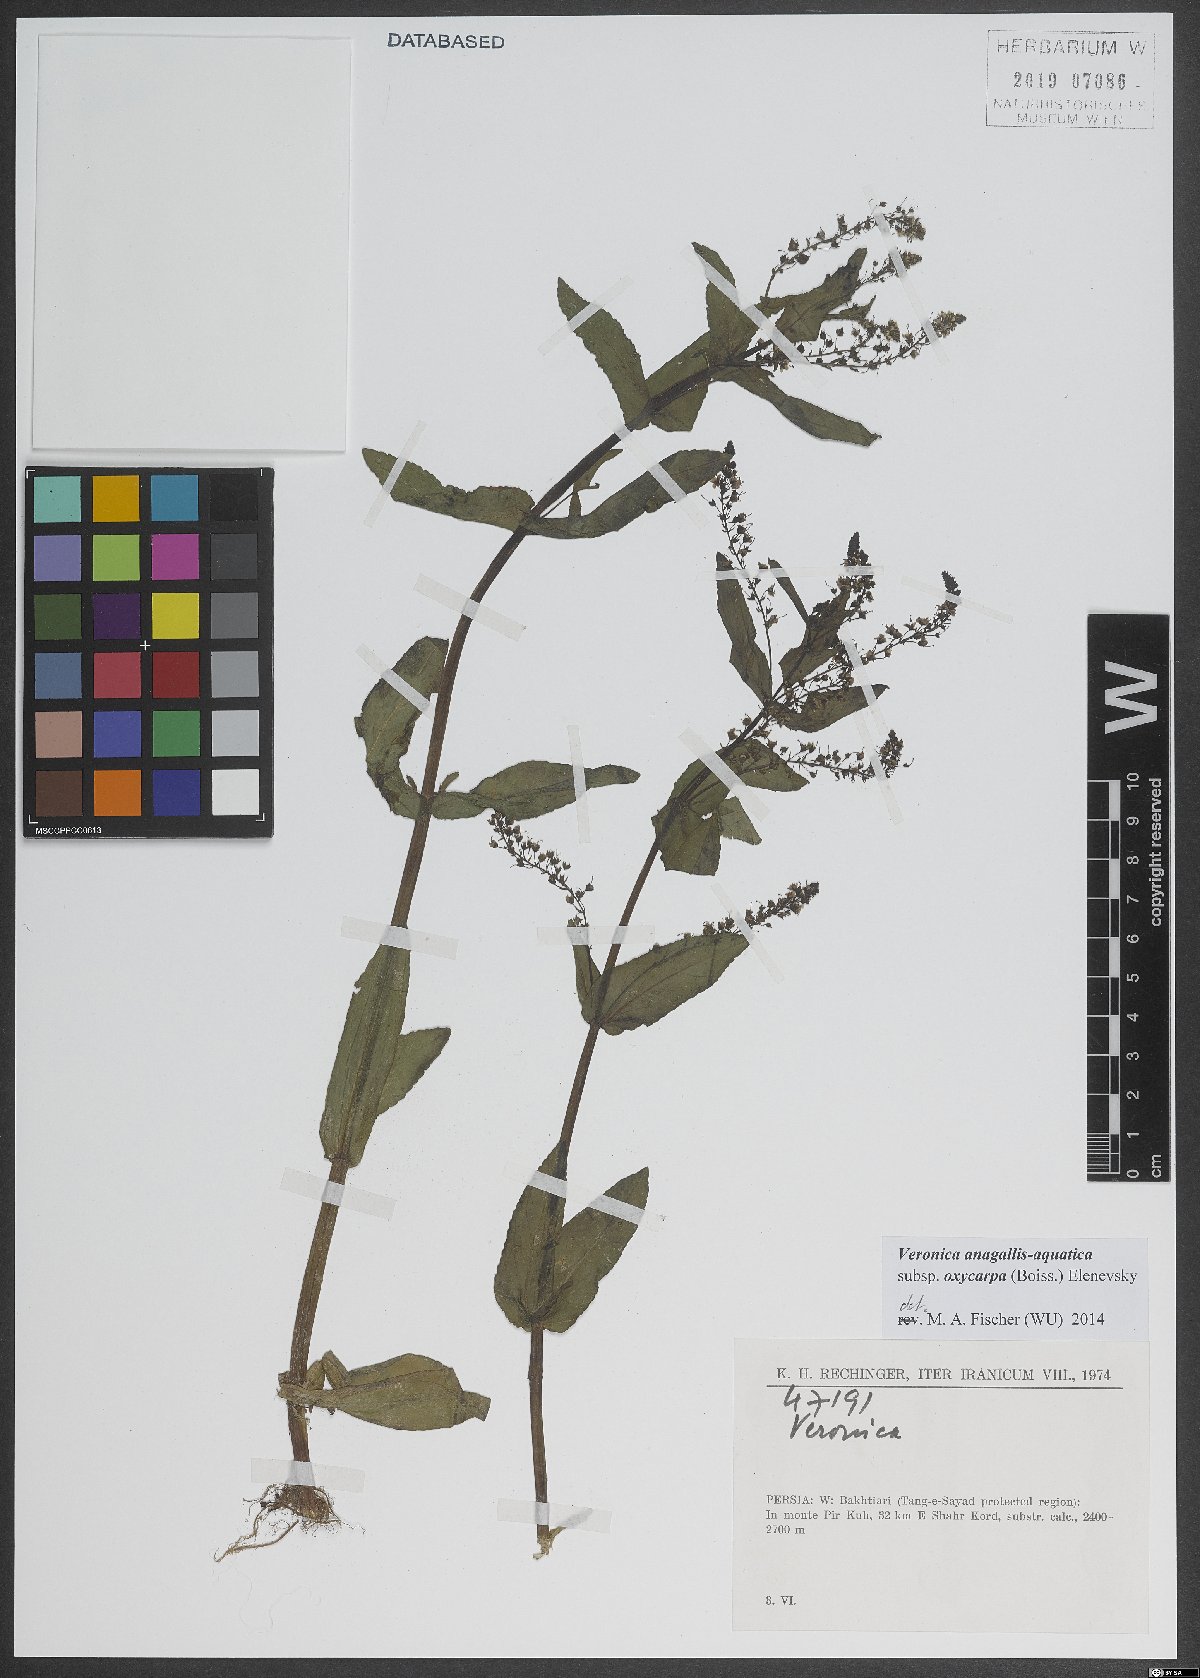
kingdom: Plantae
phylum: Tracheophyta
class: Magnoliopsida
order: Lamiales
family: Plantaginaceae
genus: Veronica
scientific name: Veronica oxycarpa
